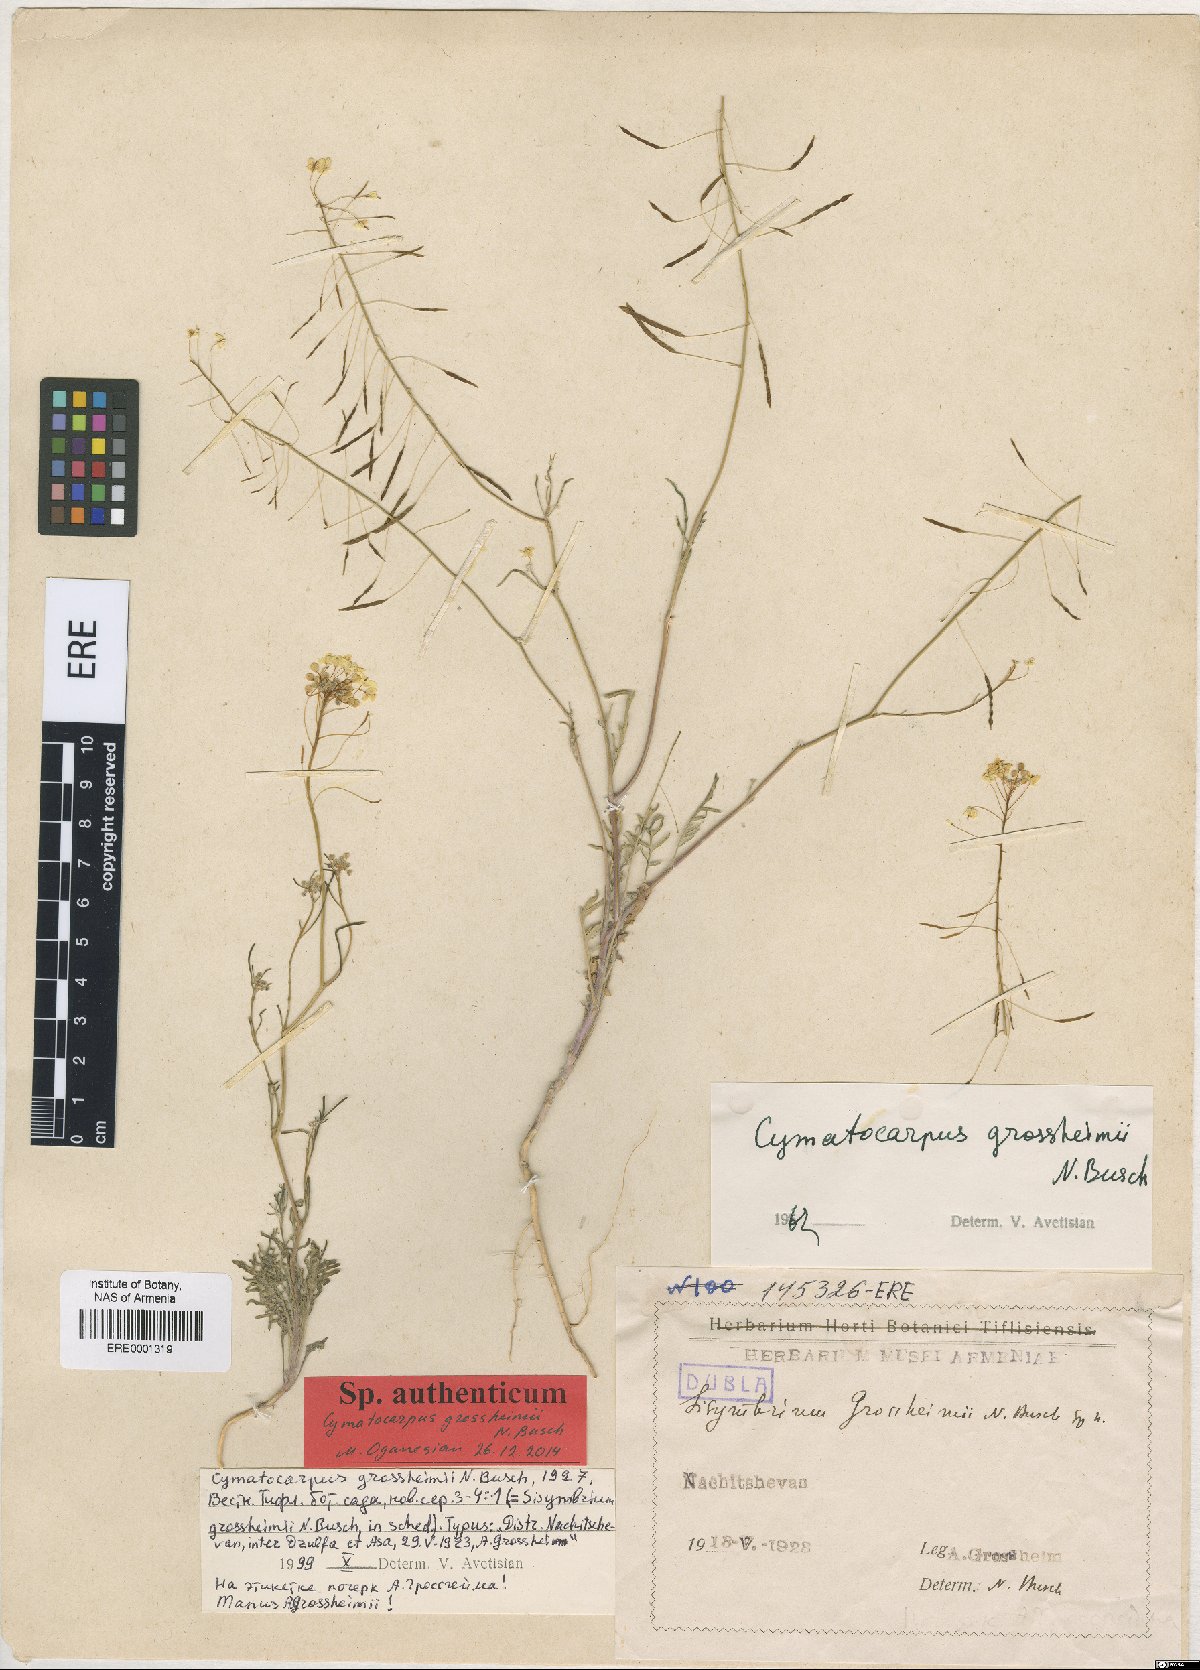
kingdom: Plantae
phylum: Tracheophyta
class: Magnoliopsida
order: Brassicales
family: Brassicaceae
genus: Cymatocarpus
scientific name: Cymatocarpus grossheimi
